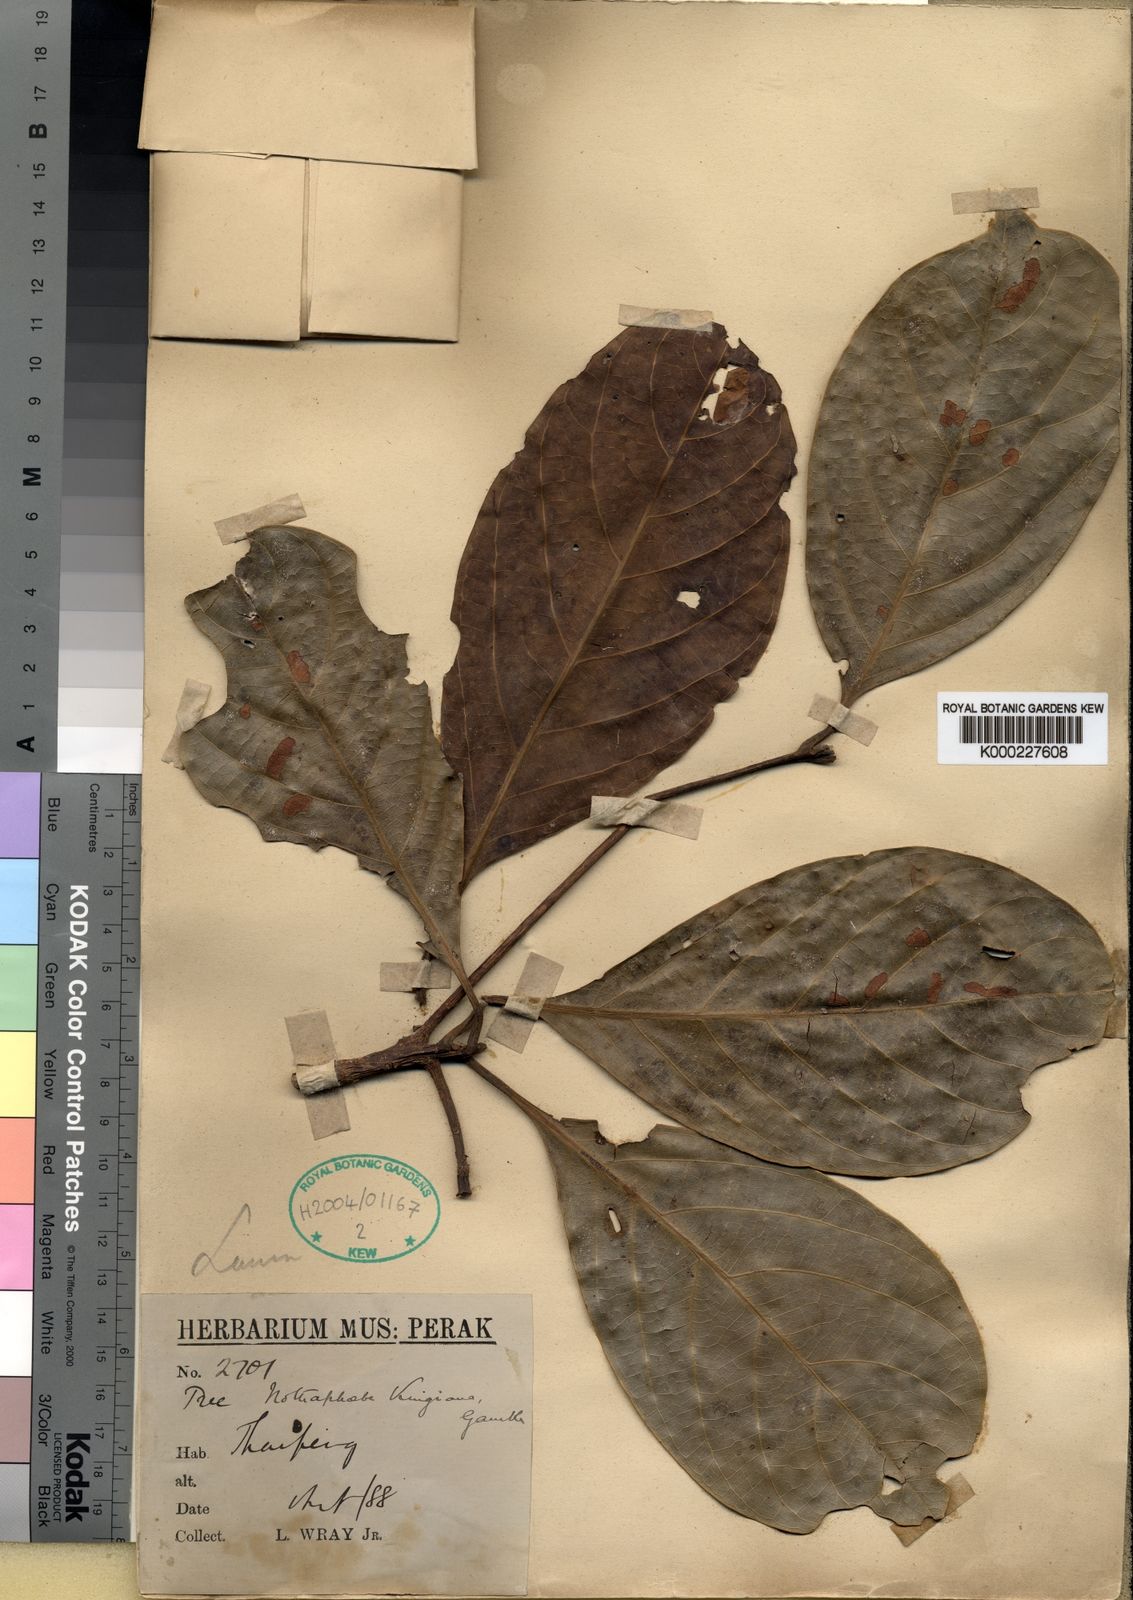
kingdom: Plantae
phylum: Tracheophyta
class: Magnoliopsida
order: Laurales
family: Lauraceae
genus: Nothaphoebe
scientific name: Nothaphoebe
